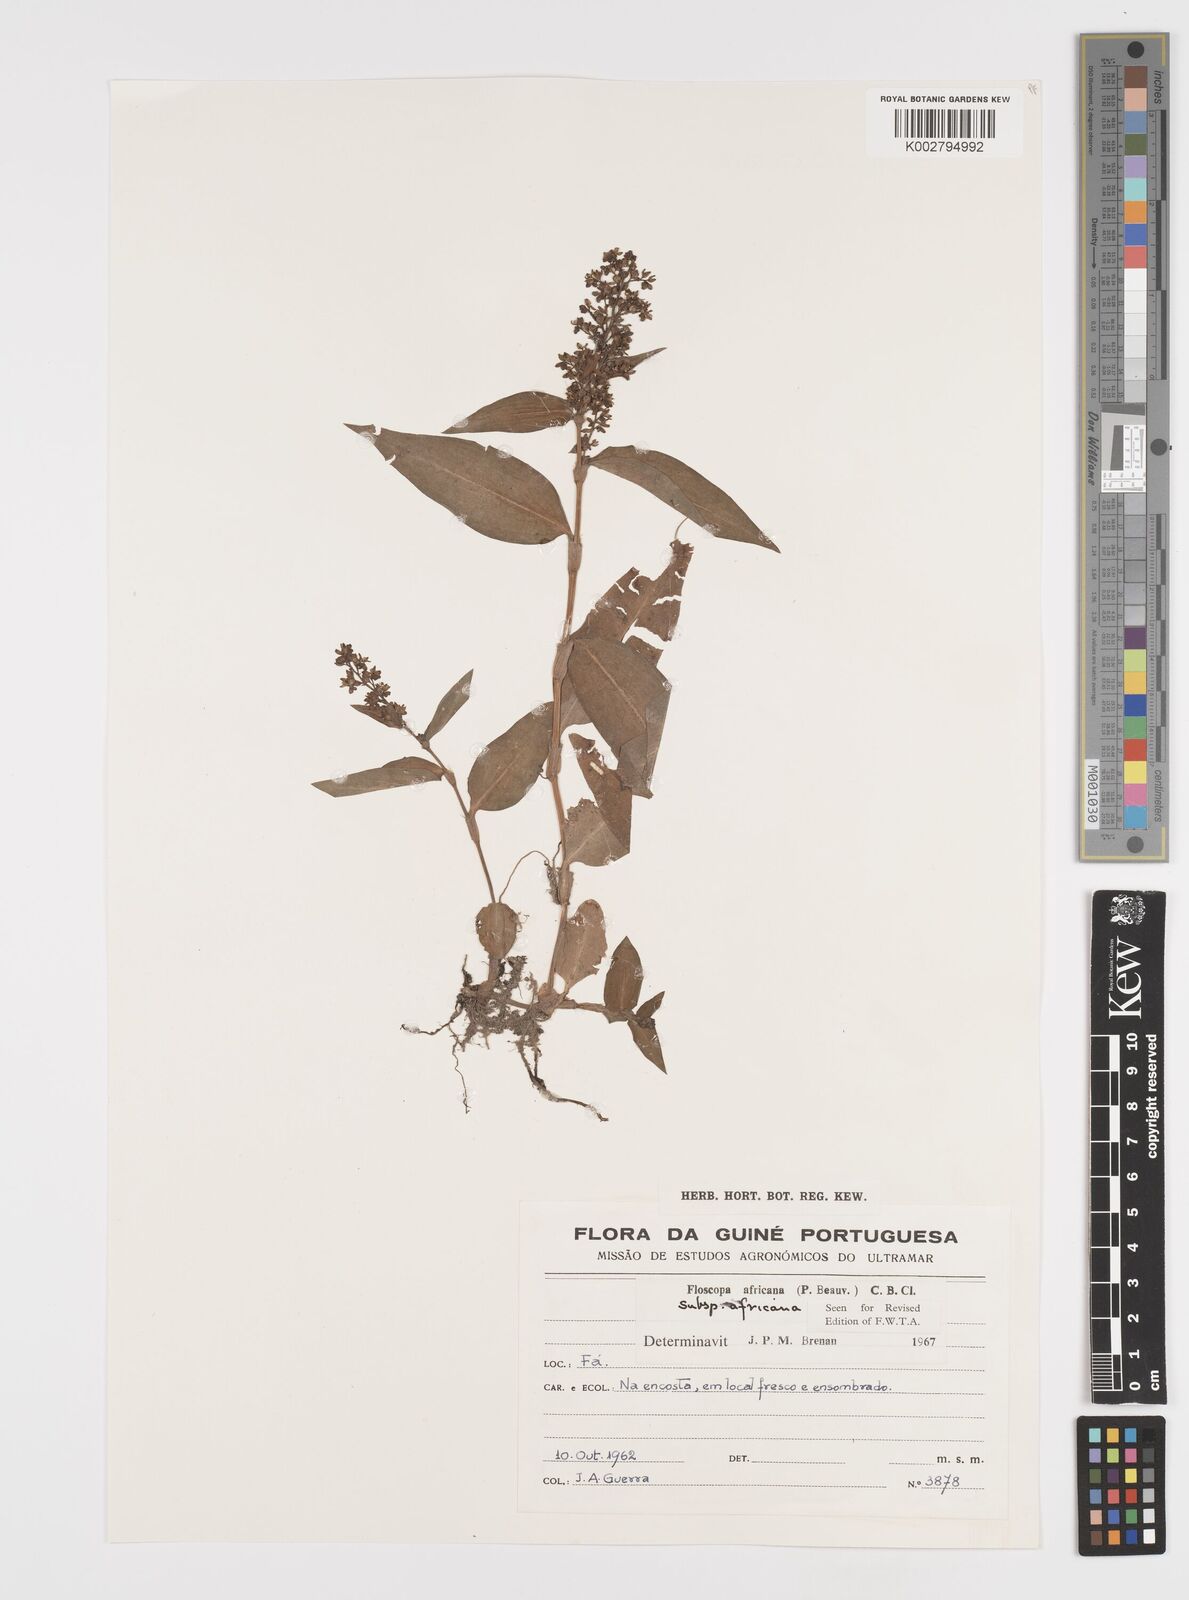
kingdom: Plantae
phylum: Tracheophyta
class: Liliopsida
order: Commelinales
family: Commelinaceae
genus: Floscopa
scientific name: Floscopa africana
